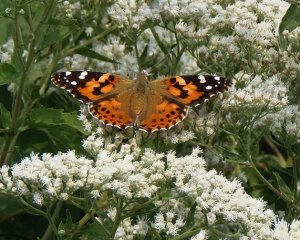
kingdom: Animalia
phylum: Arthropoda
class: Insecta
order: Lepidoptera
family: Nymphalidae
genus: Vanessa
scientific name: Vanessa cardui
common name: Painted Lady
